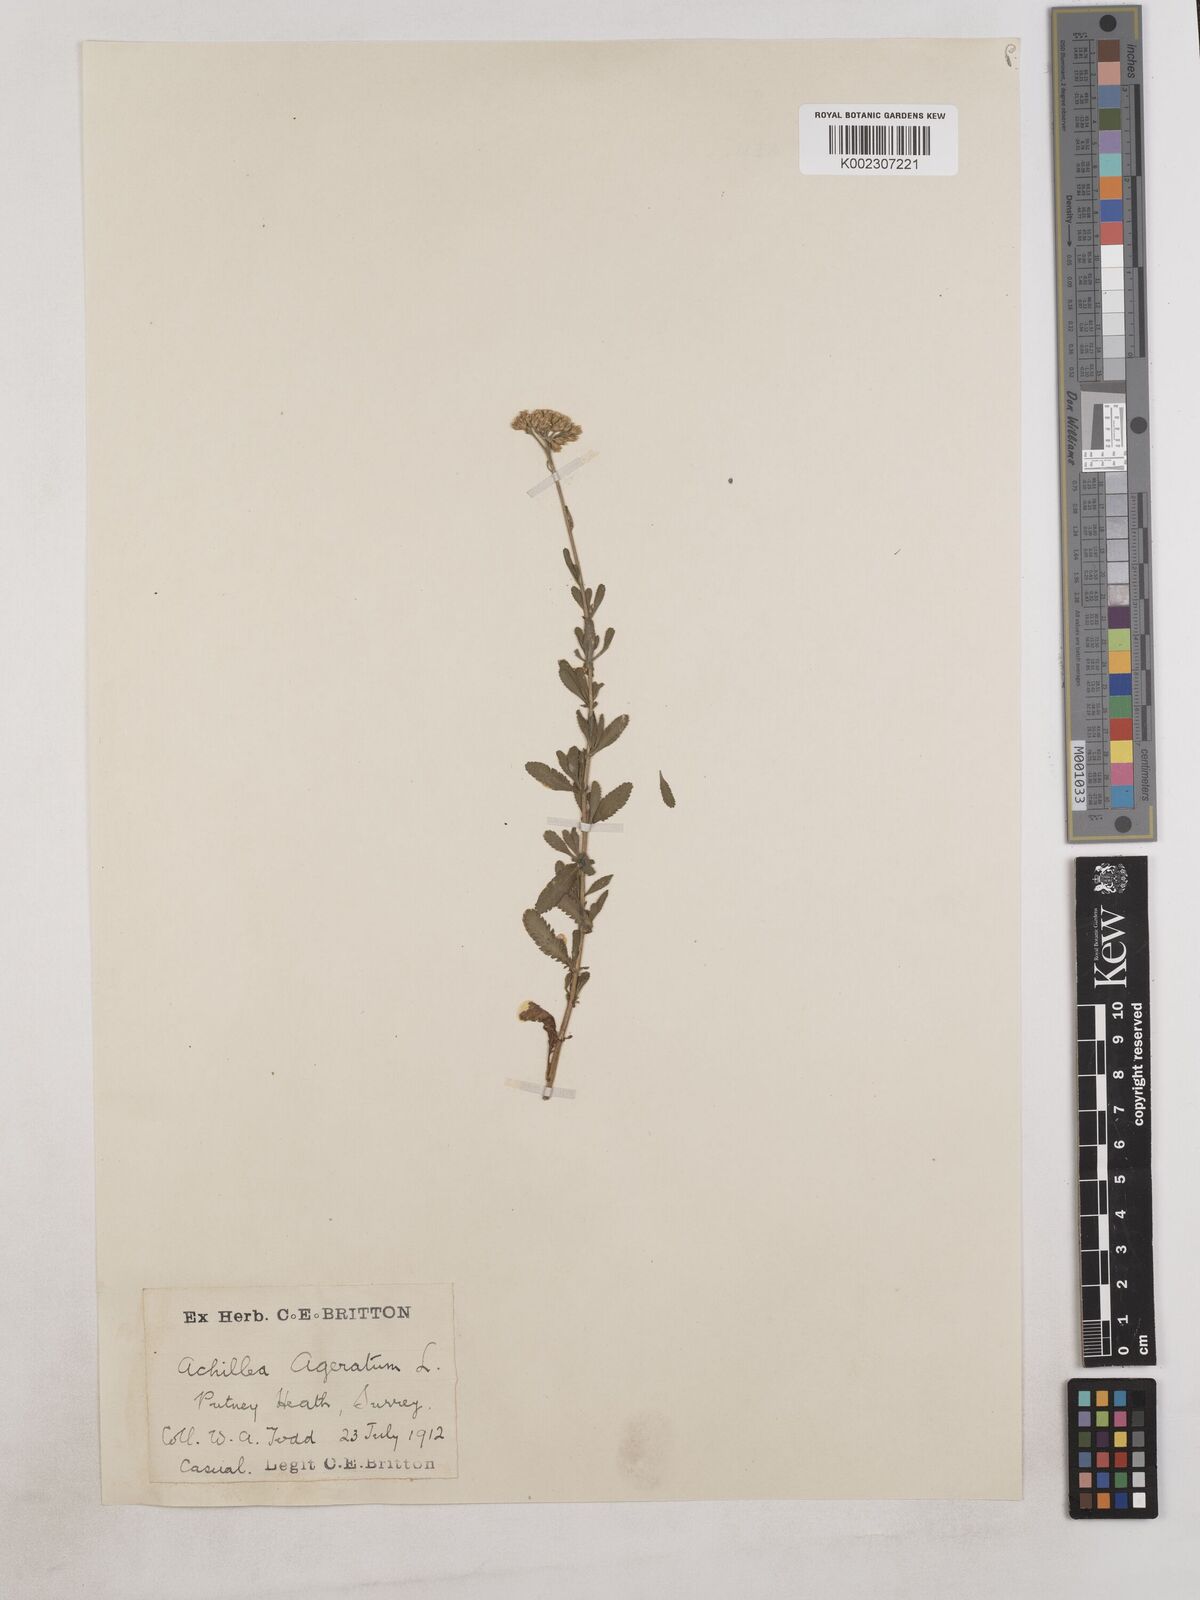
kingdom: Plantae
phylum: Tracheophyta
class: Magnoliopsida
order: Asterales
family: Asteraceae
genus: Achillea
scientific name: Achillea ageratum
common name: Sweet-nancy
